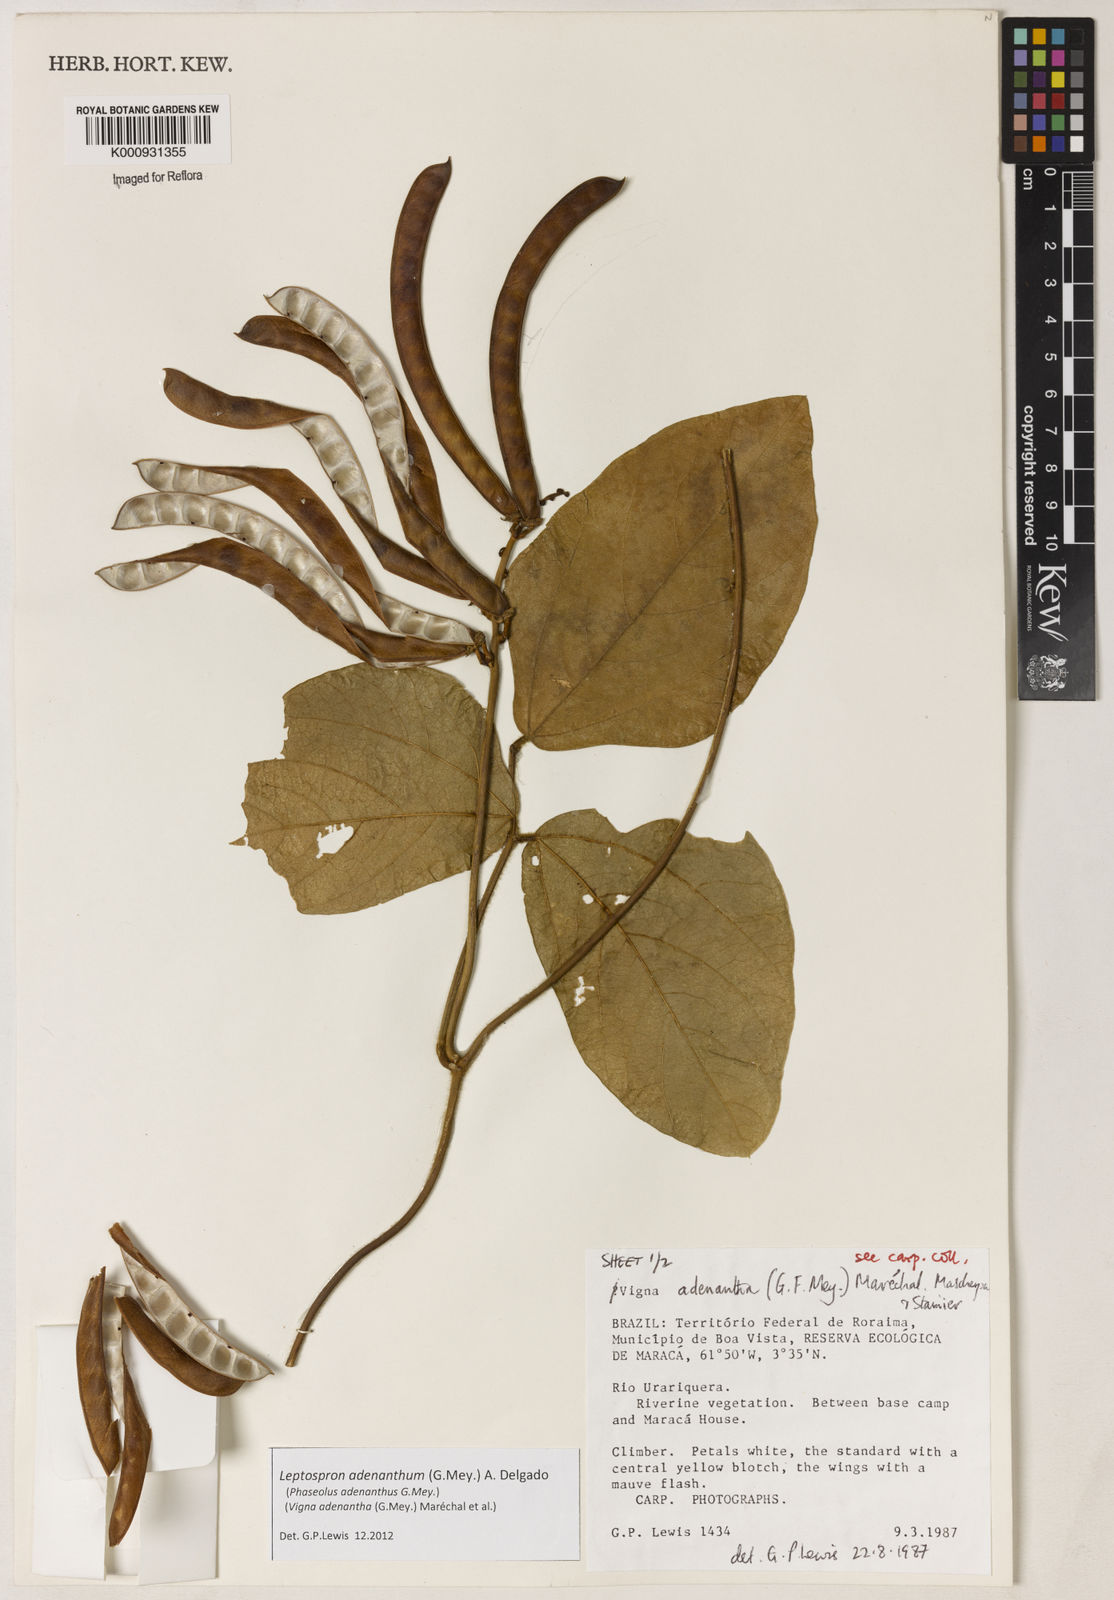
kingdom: Plantae
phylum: Tracheophyta
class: Magnoliopsida
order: Fabales
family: Fabaceae
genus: Leptospron
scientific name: Leptospron adenanthum
